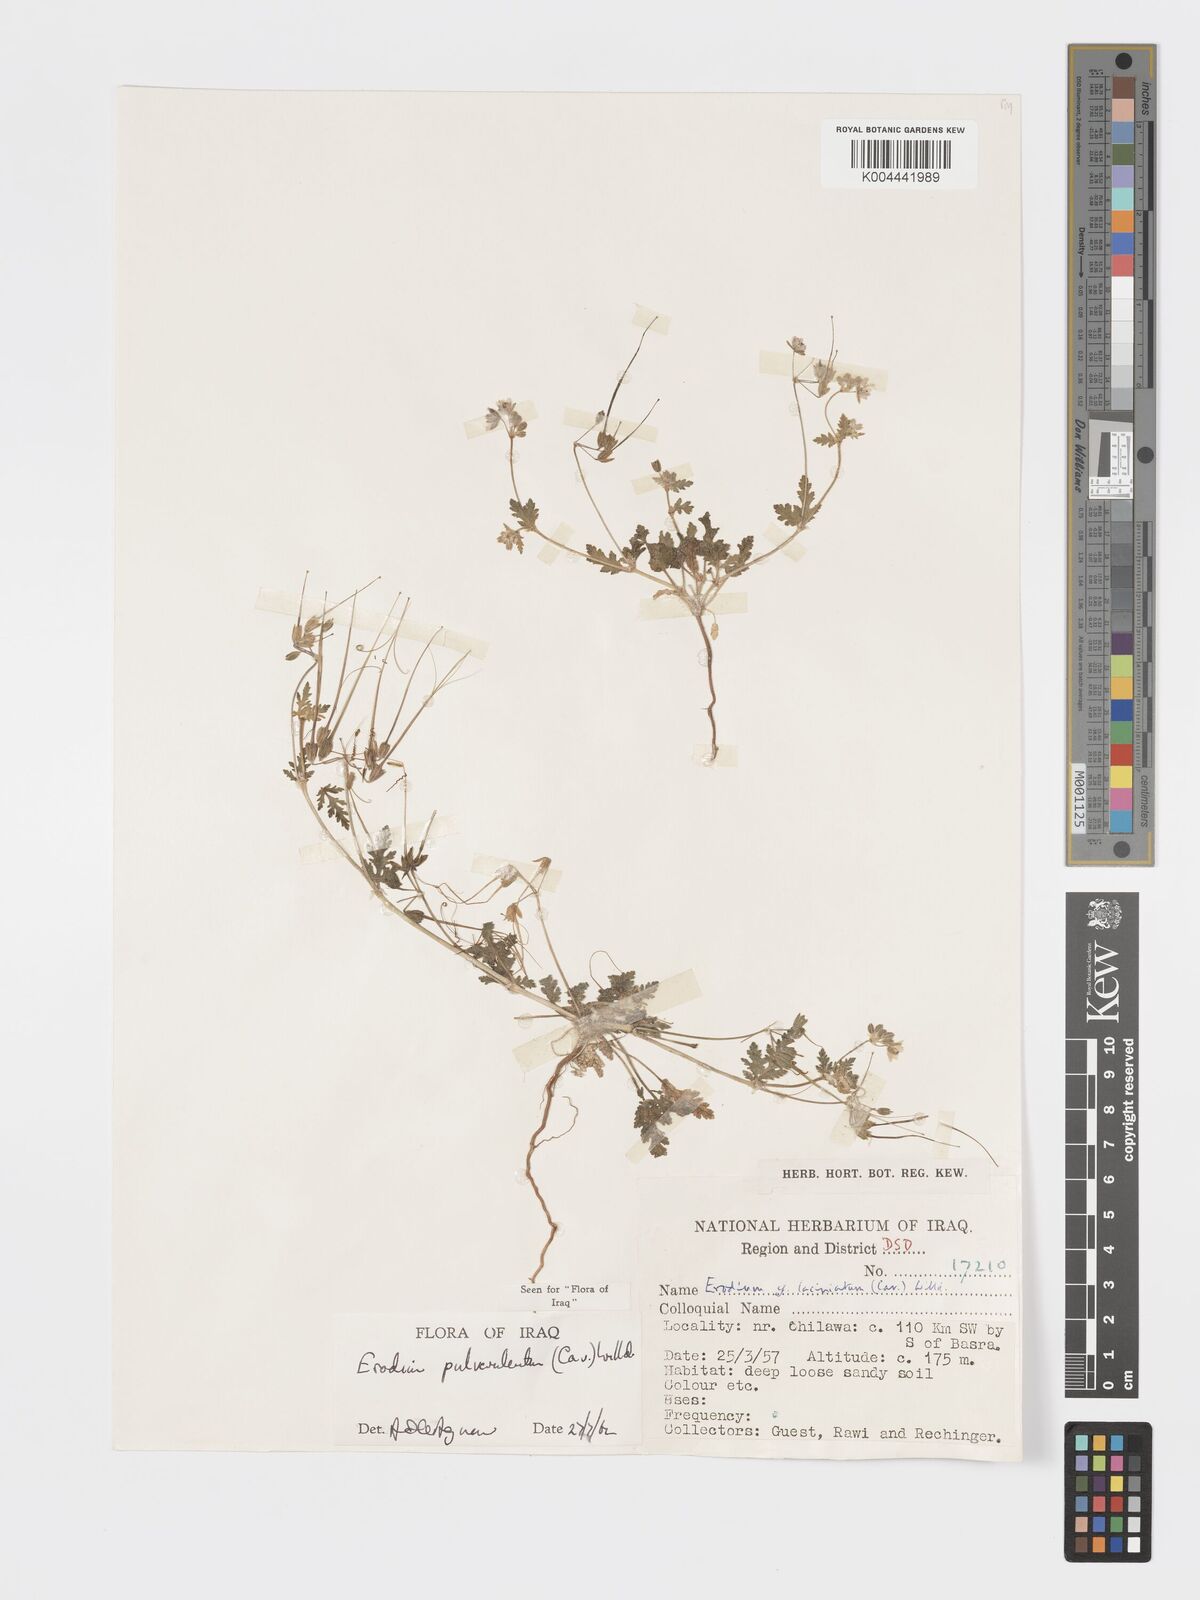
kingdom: Plantae
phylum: Tracheophyta
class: Magnoliopsida
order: Geraniales
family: Geraniaceae
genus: Erodium
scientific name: Erodium laciniatum
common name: Cutleaf stork's bill
